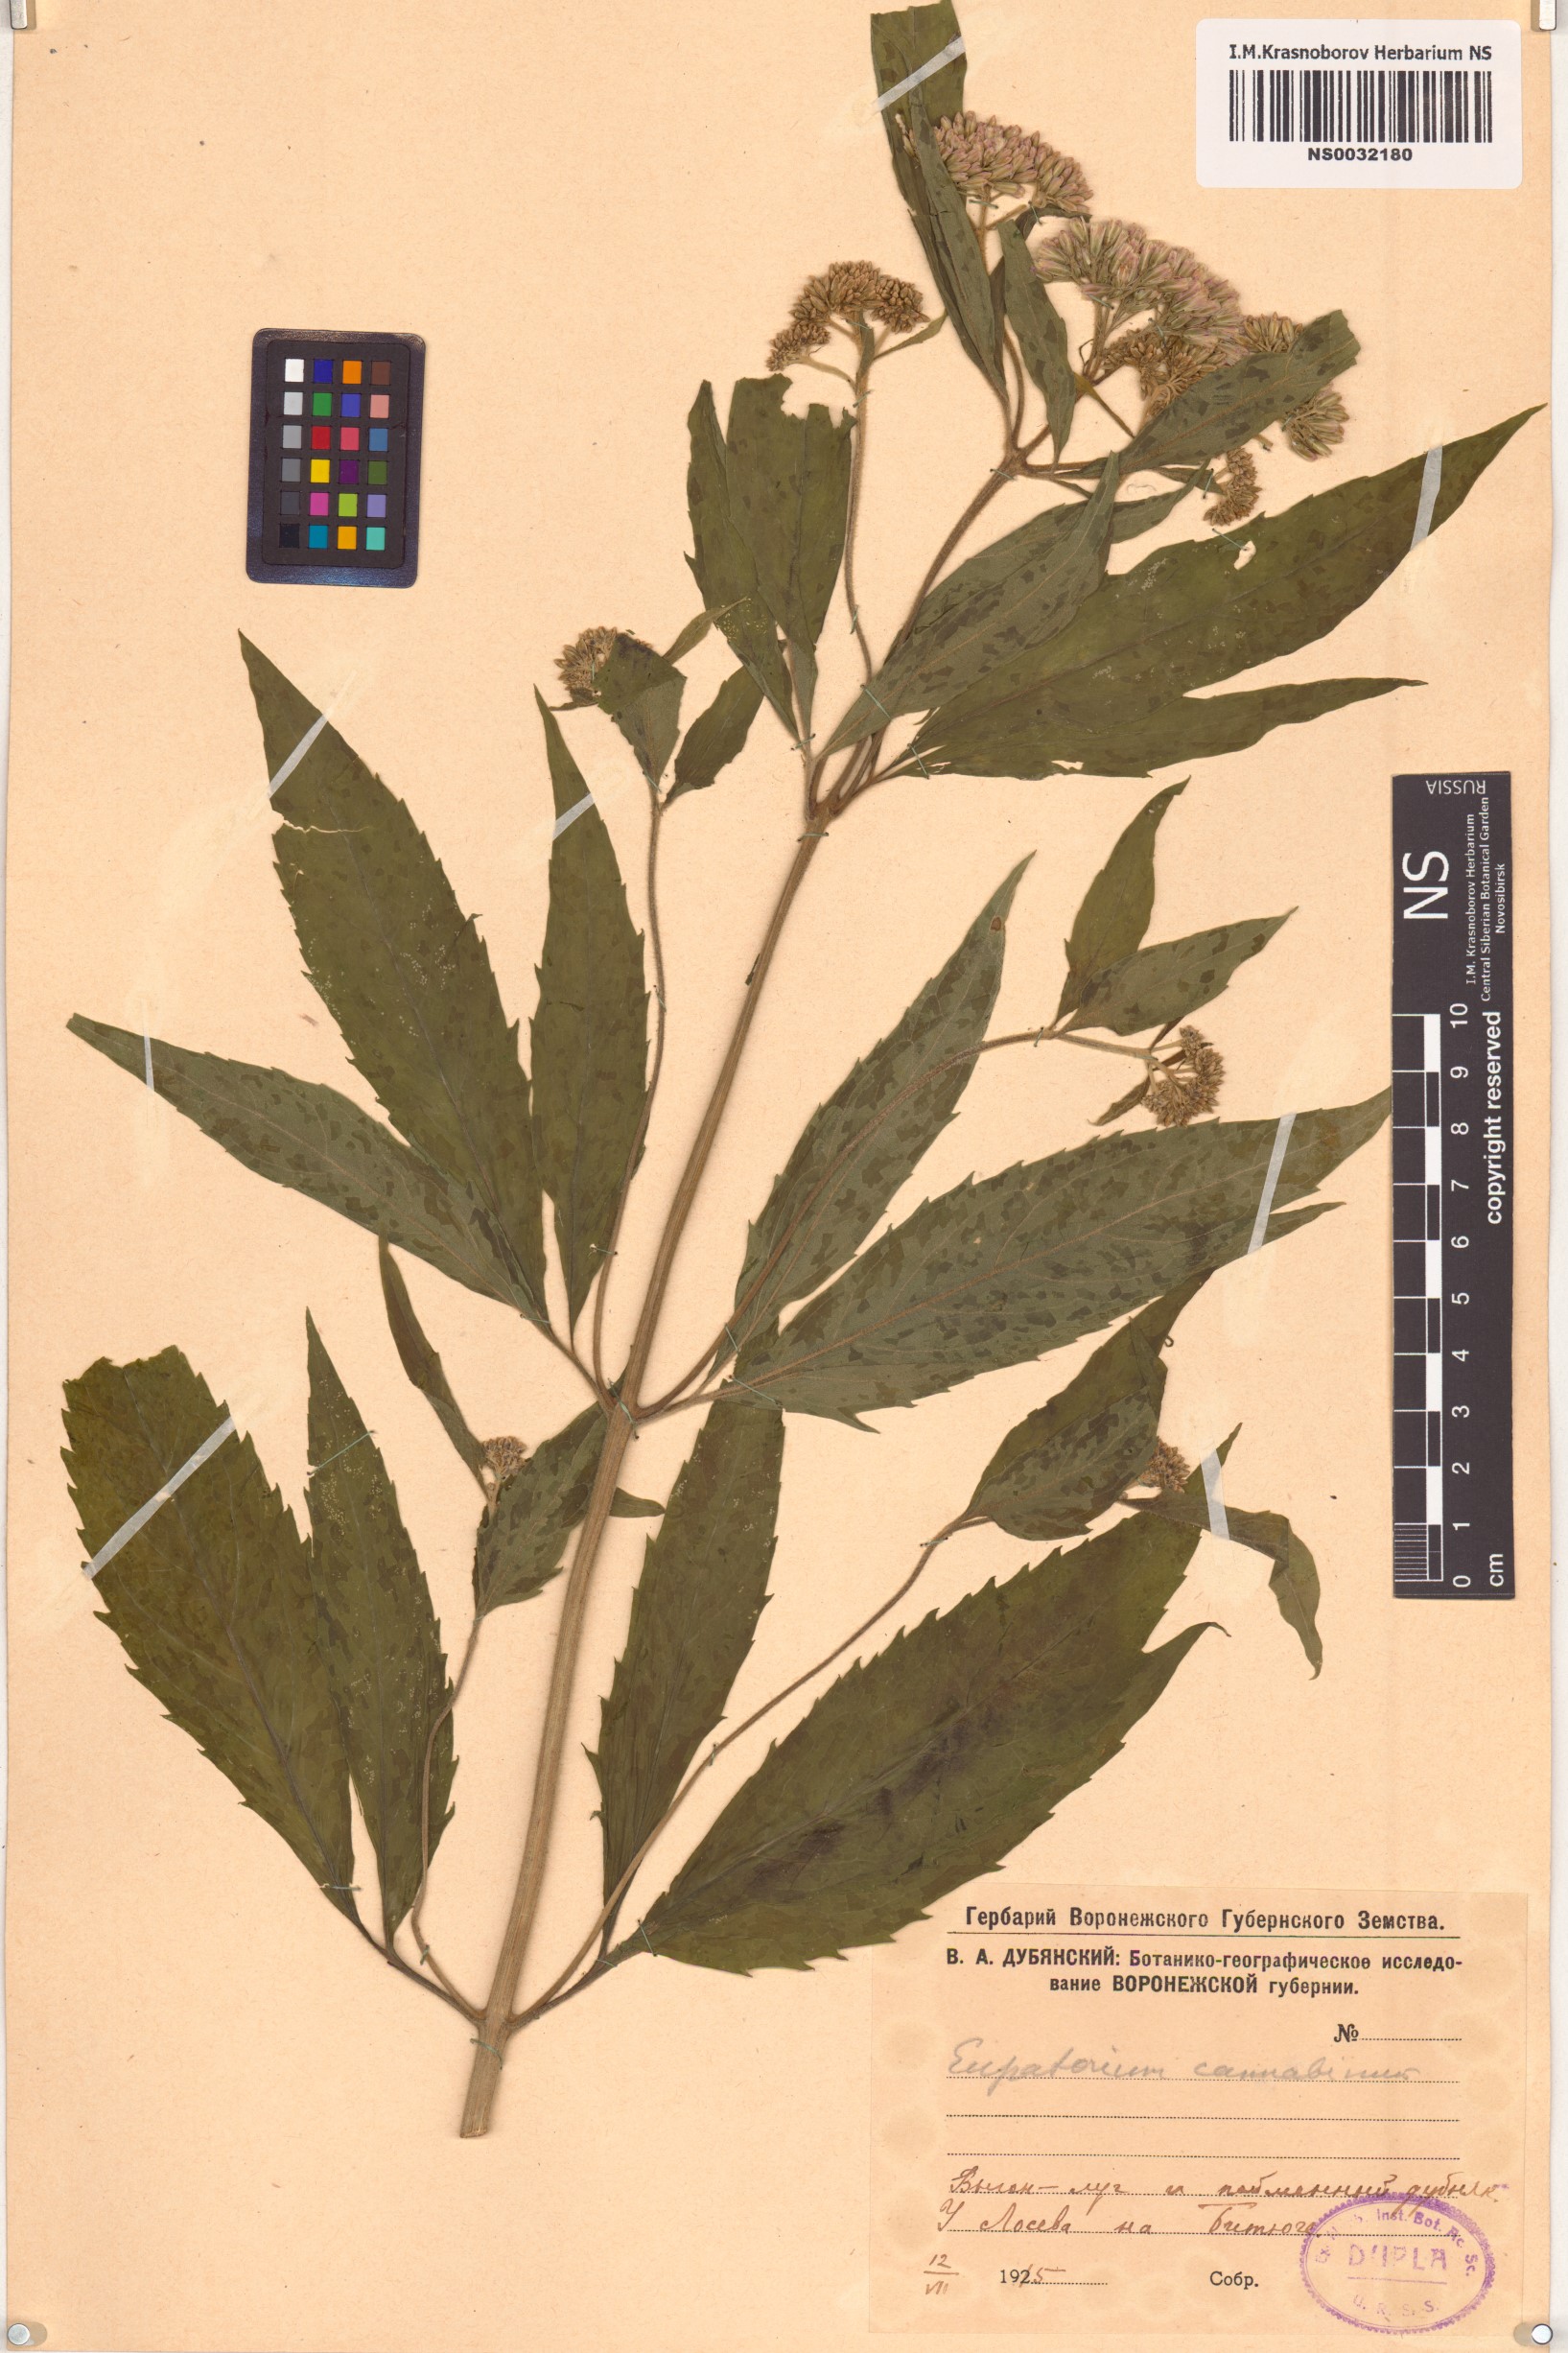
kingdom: Plantae
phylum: Tracheophyta
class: Magnoliopsida
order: Asterales
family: Asteraceae
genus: Eupatorium
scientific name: Eupatorium cannabinum
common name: Hemp-agrimony
